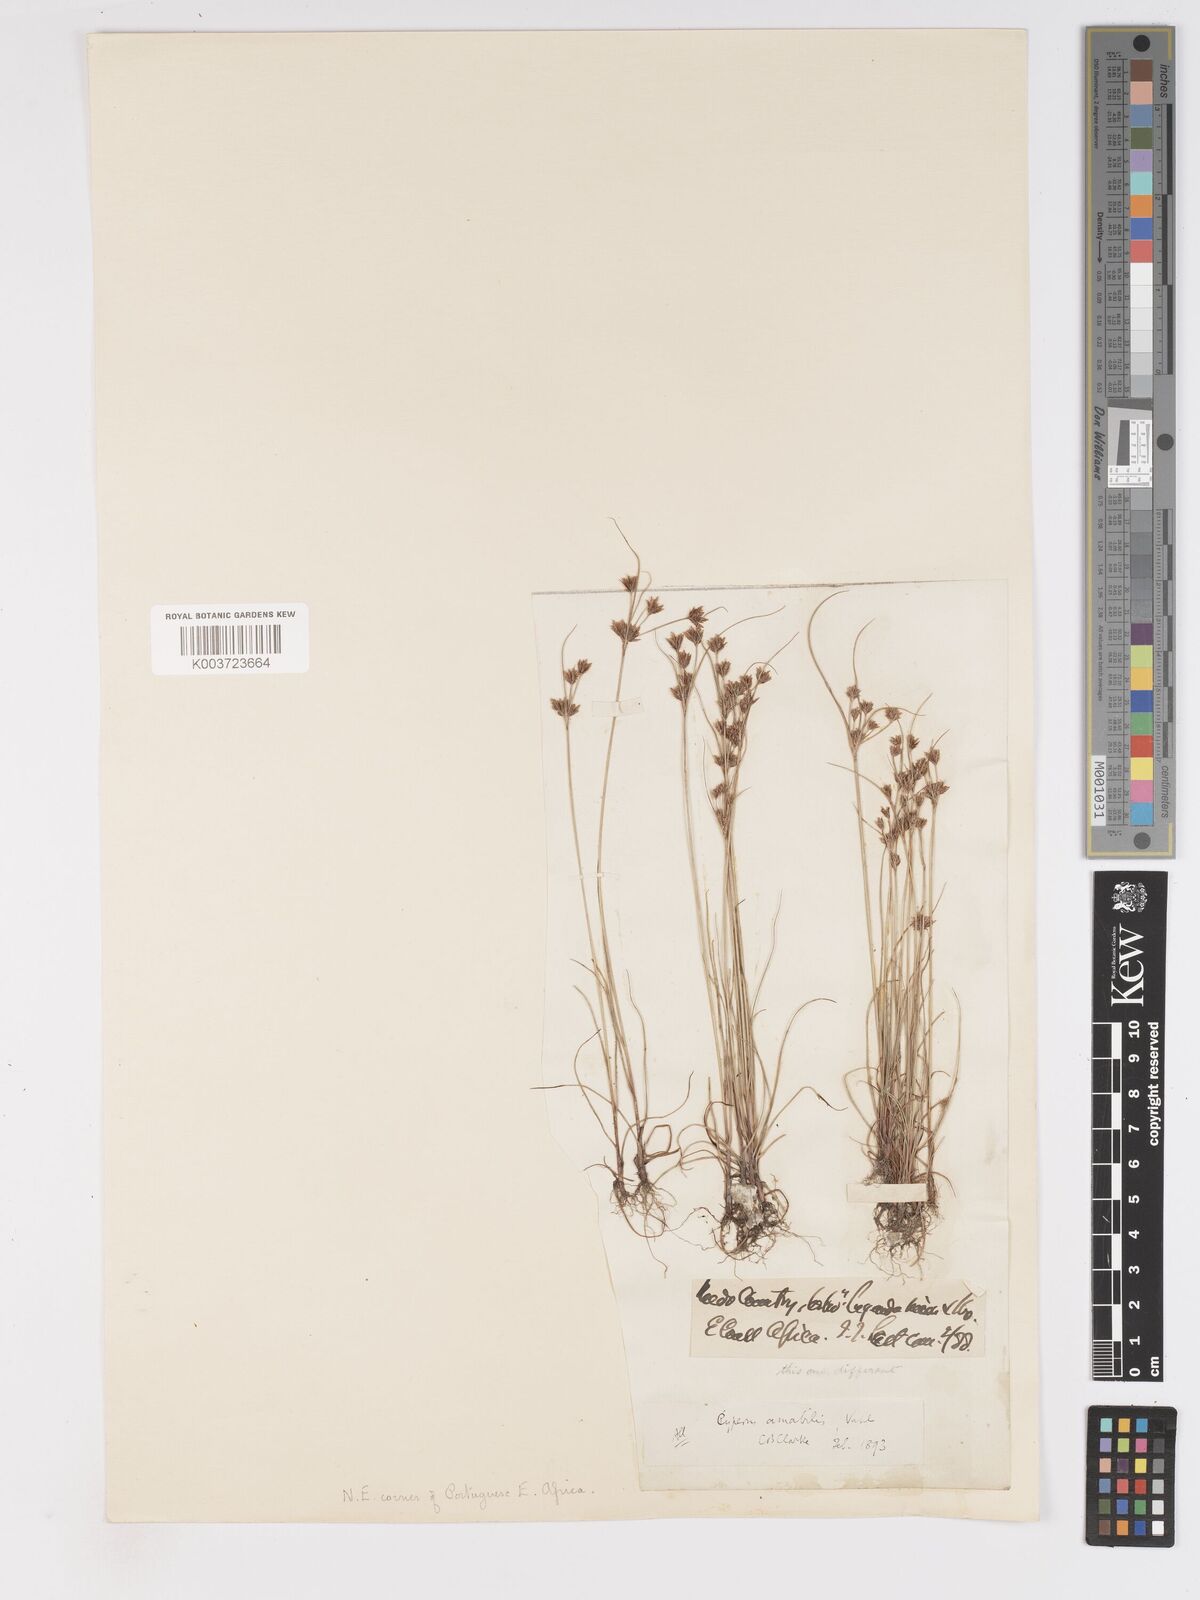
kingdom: Plantae
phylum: Tracheophyta
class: Liliopsida
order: Poales
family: Cyperaceae
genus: Cyperus
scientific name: Cyperus amabilis
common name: Foothill flat sedge
